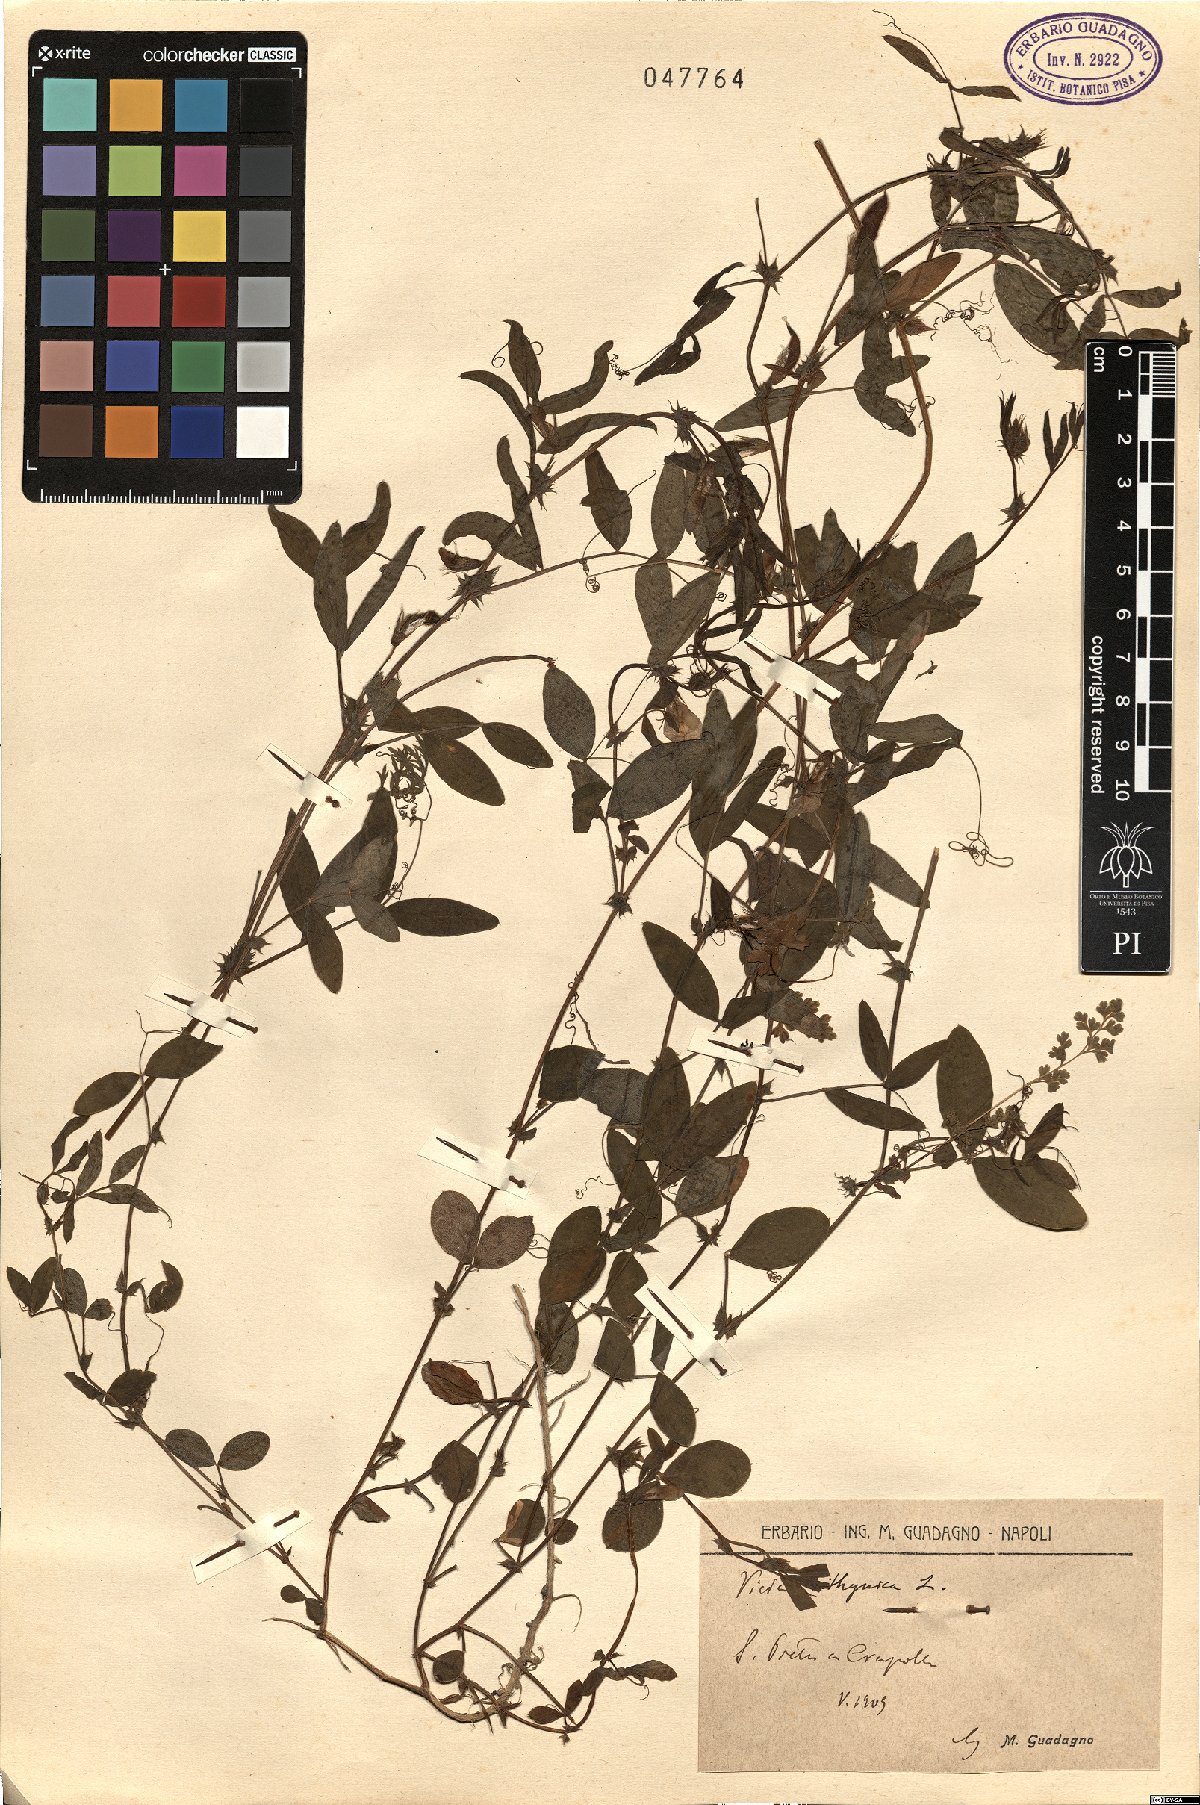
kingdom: Plantae
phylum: Tracheophyta
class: Magnoliopsida
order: Fabales
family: Fabaceae
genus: Vicia
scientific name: Vicia bithynica
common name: Bithynian vetch
